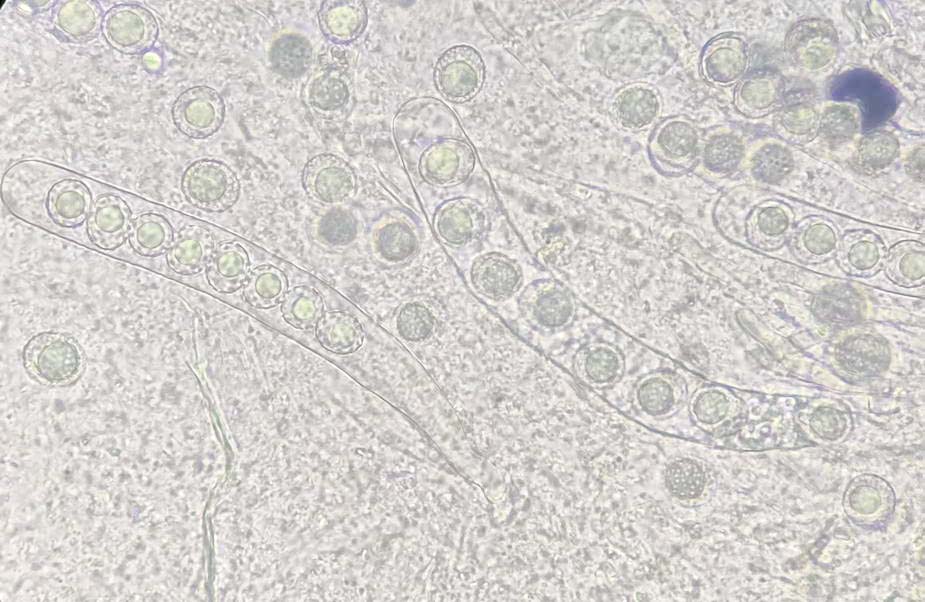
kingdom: Fungi
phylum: Ascomycota
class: Pezizomycetes
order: Pezizales
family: Pyronemataceae
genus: Octospora
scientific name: Octospora affinis
